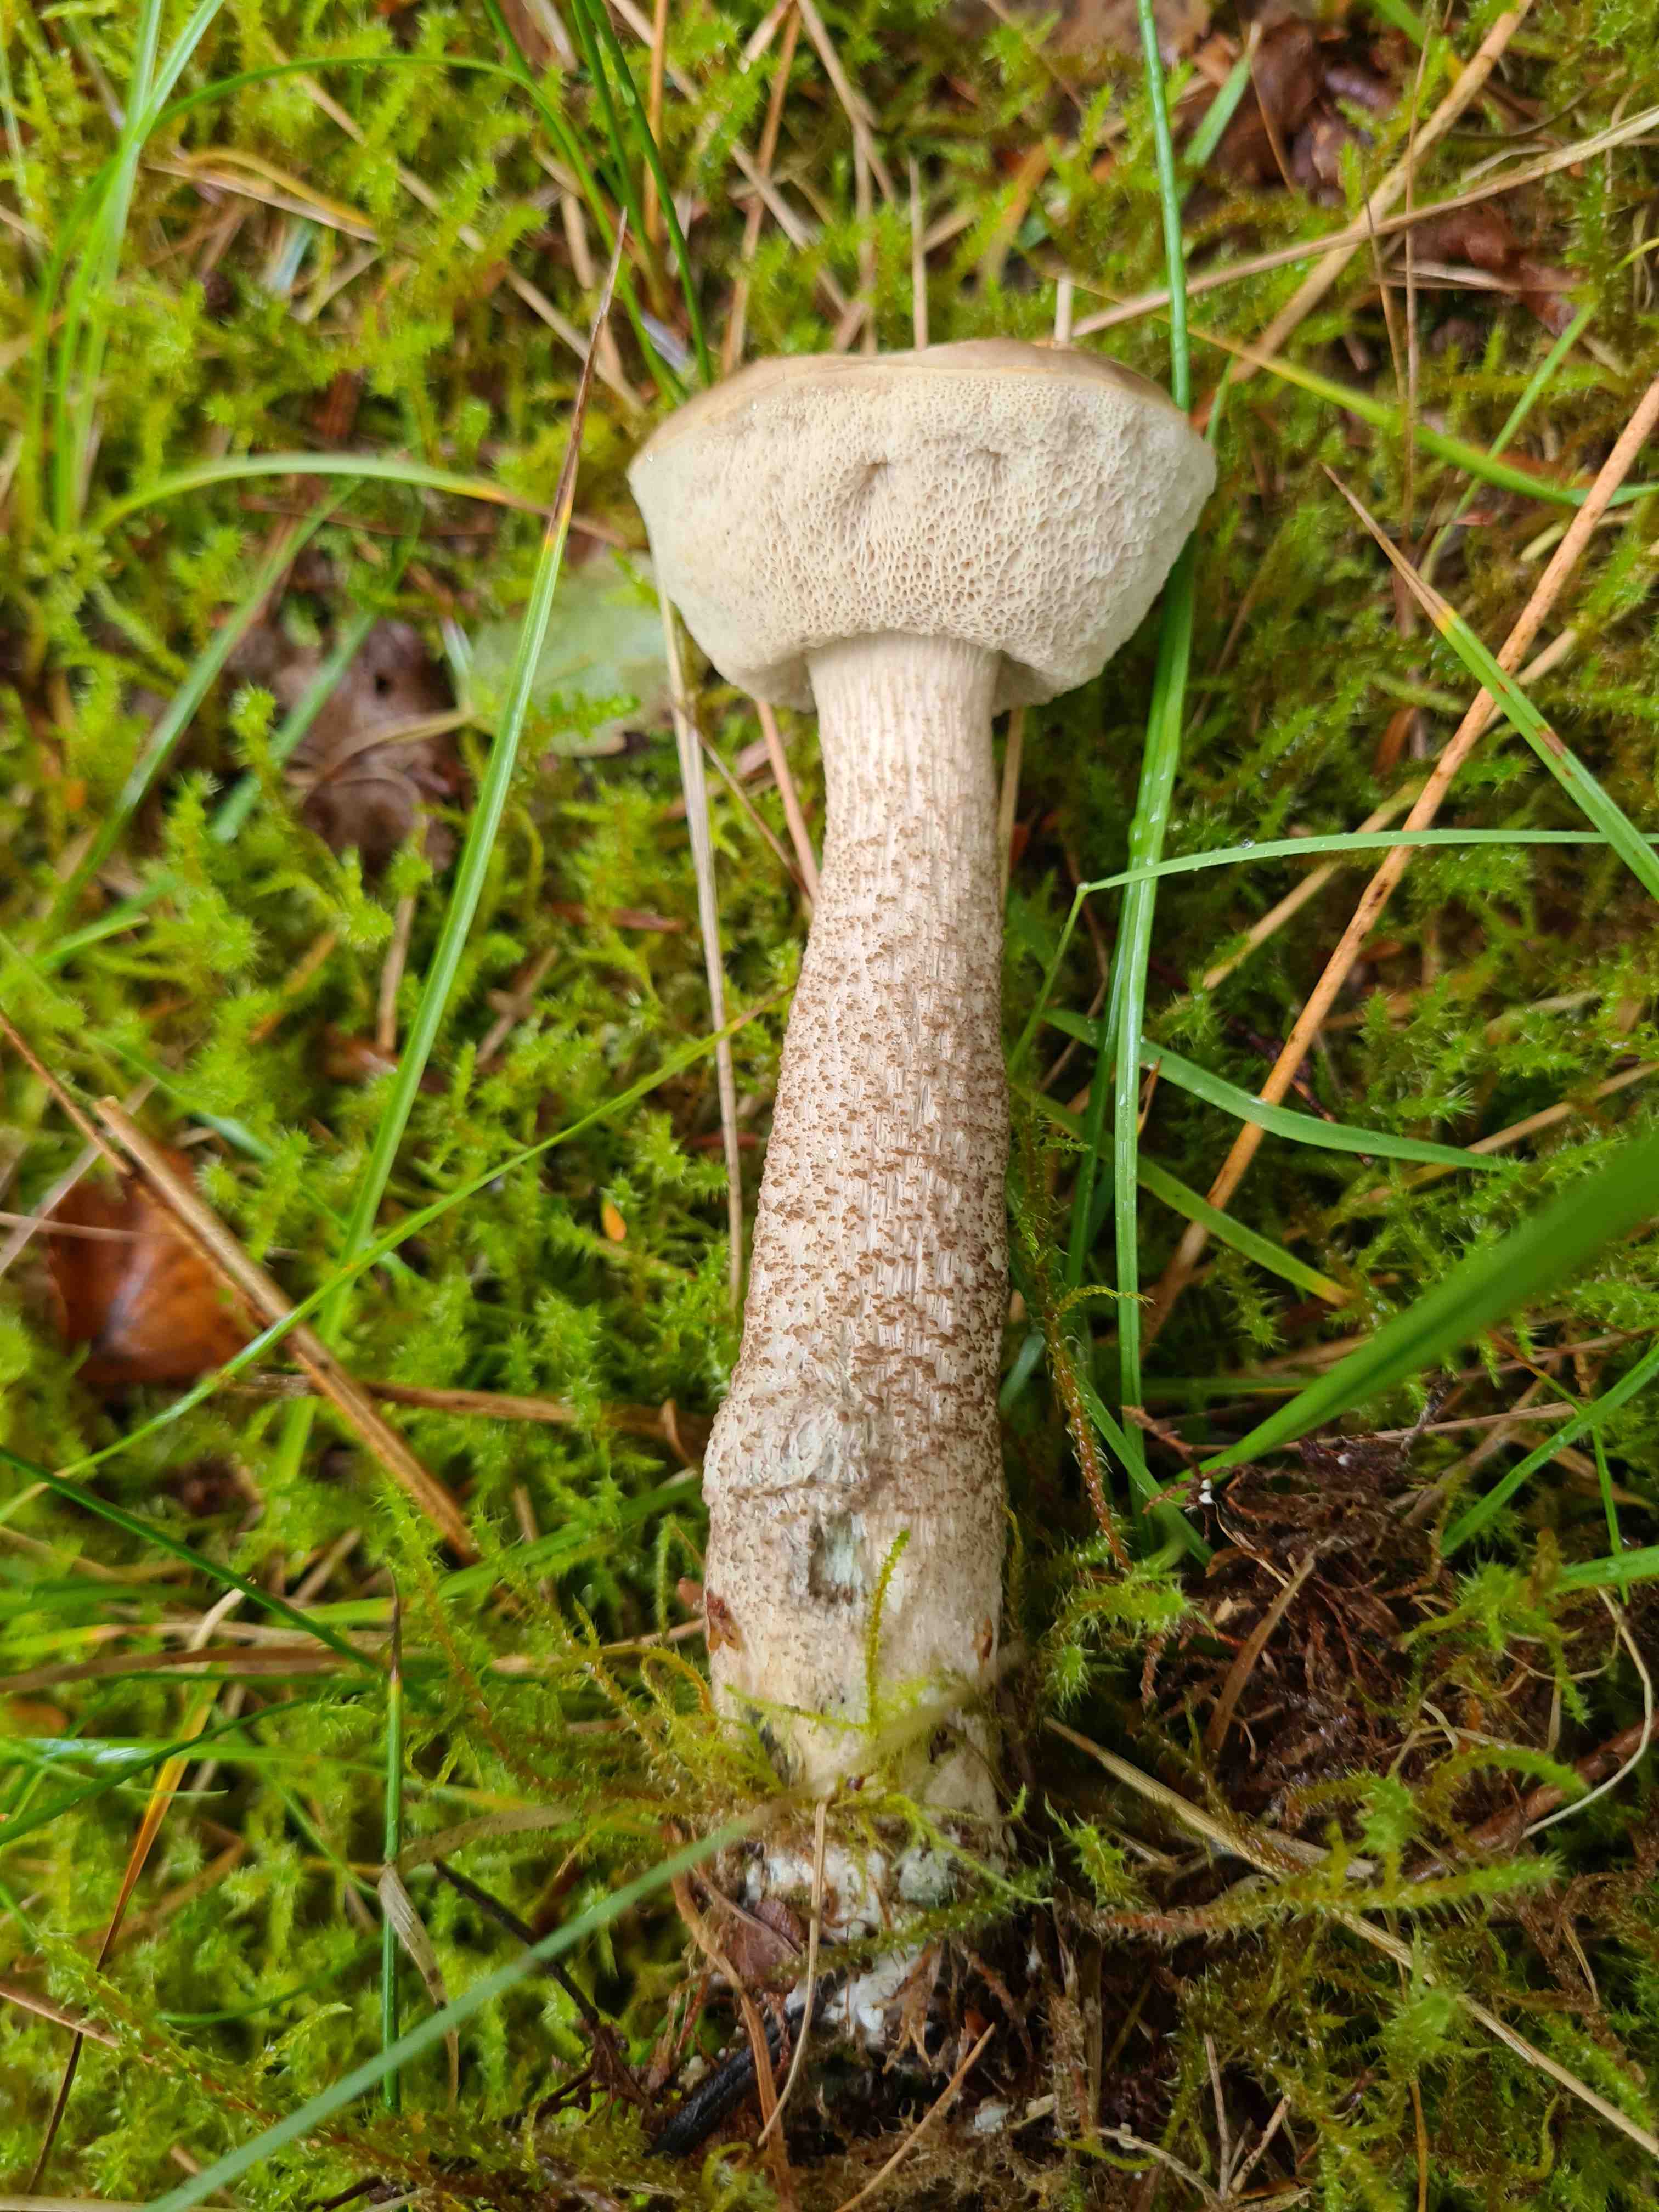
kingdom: Fungi
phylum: Basidiomycota
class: Agaricomycetes
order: Boletales
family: Boletaceae
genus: Leccinum
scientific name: Leccinum
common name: skælrørhat
